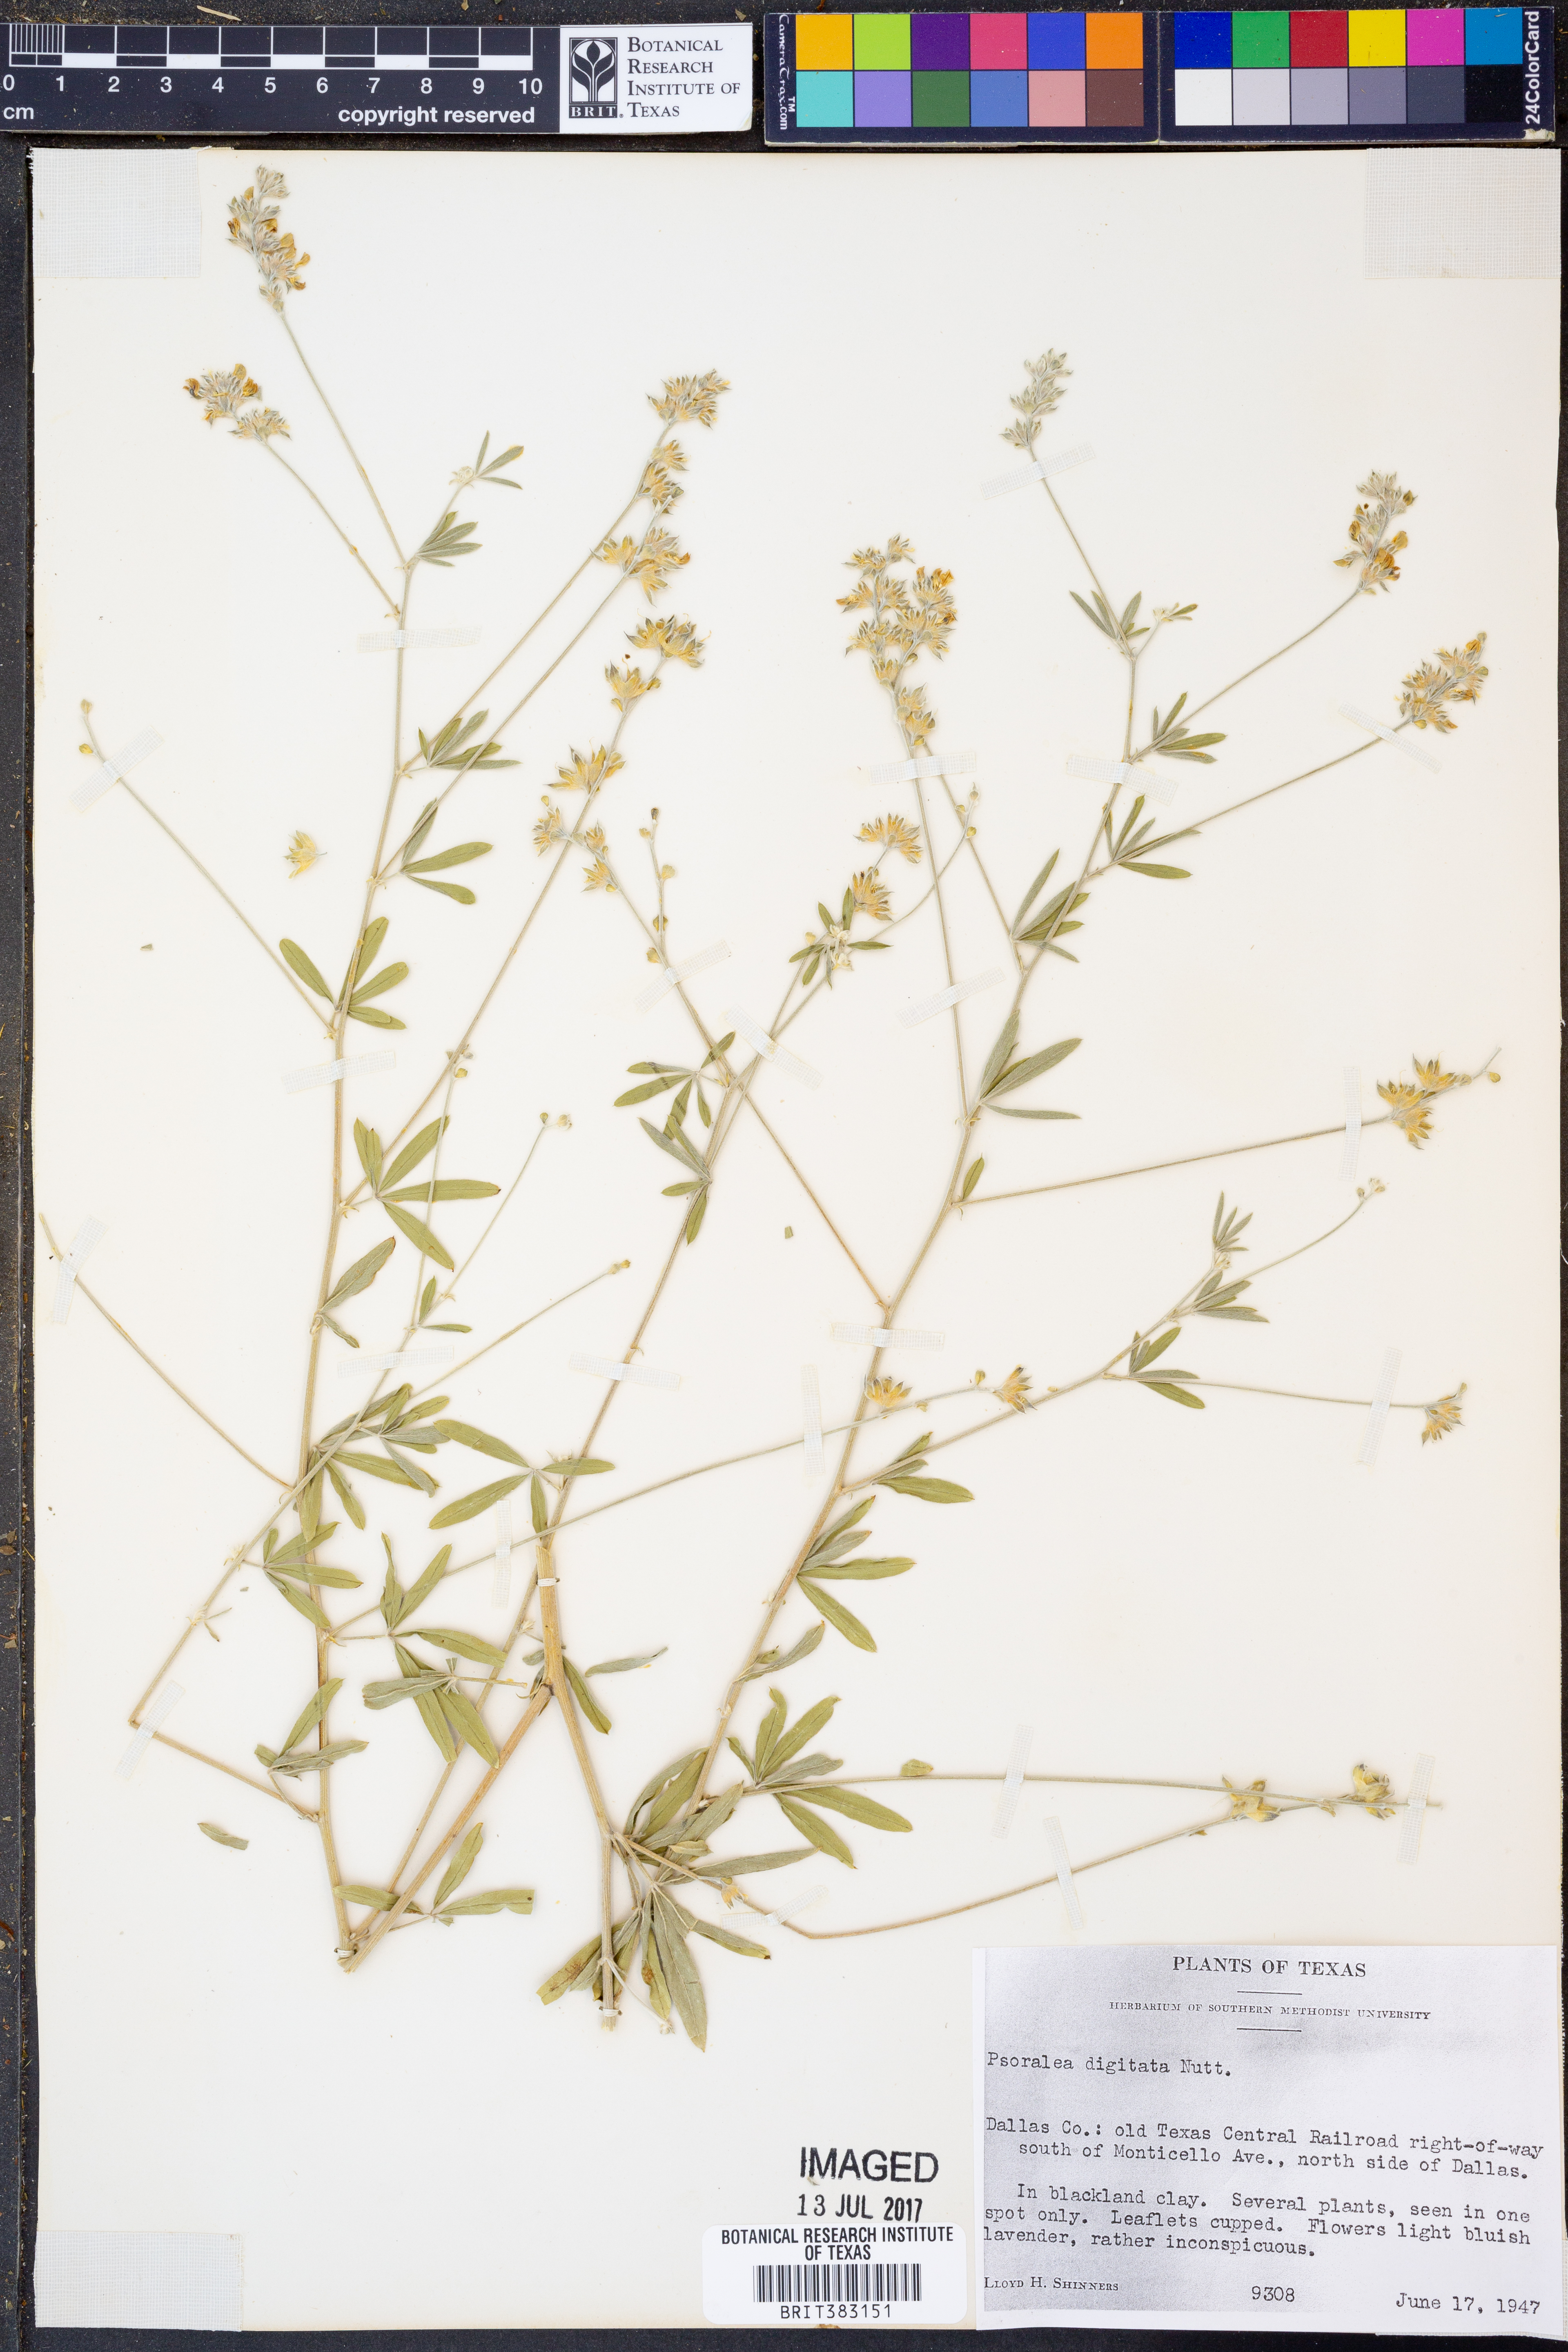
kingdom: Plantae
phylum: Tracheophyta
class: Magnoliopsida
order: Fabales
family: Fabaceae
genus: Pediomelum
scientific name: Pediomelum digitatum
